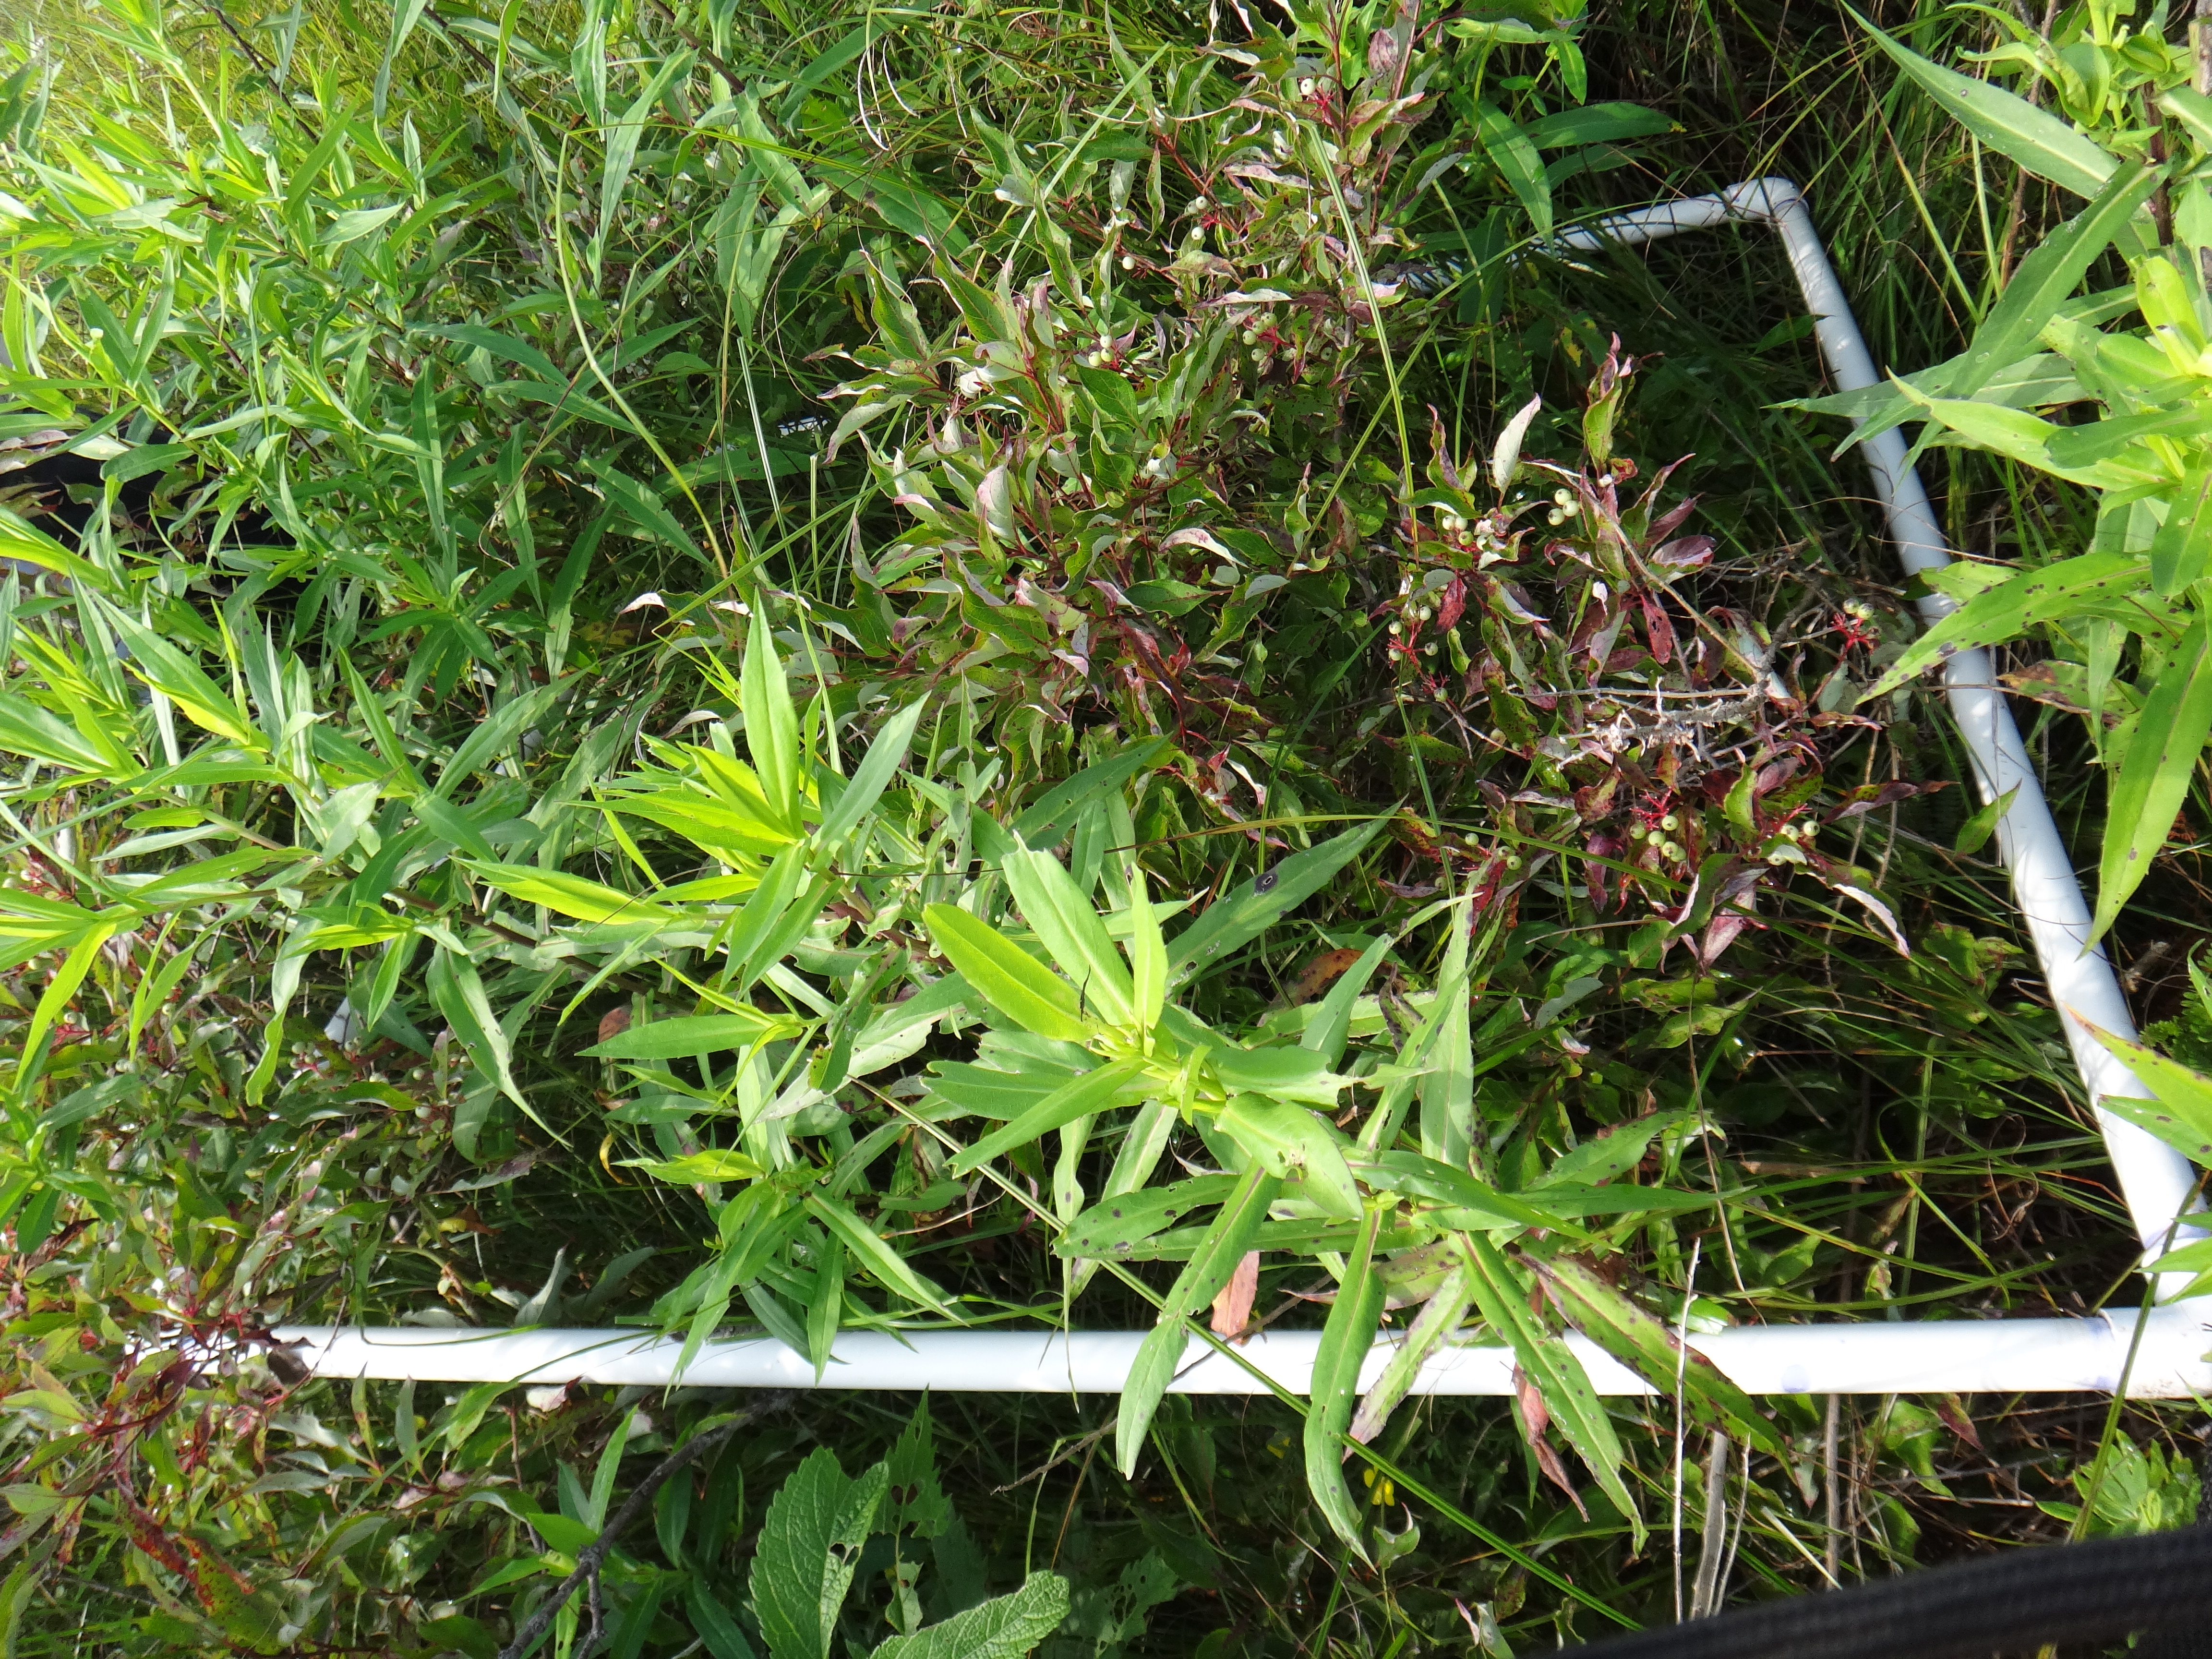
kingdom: Plantae
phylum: Tracheophyta
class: Liliopsida
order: Poales
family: Poaceae
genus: Muhlenbergia
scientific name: Muhlenbergia mexicana
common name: Mexican muhly
